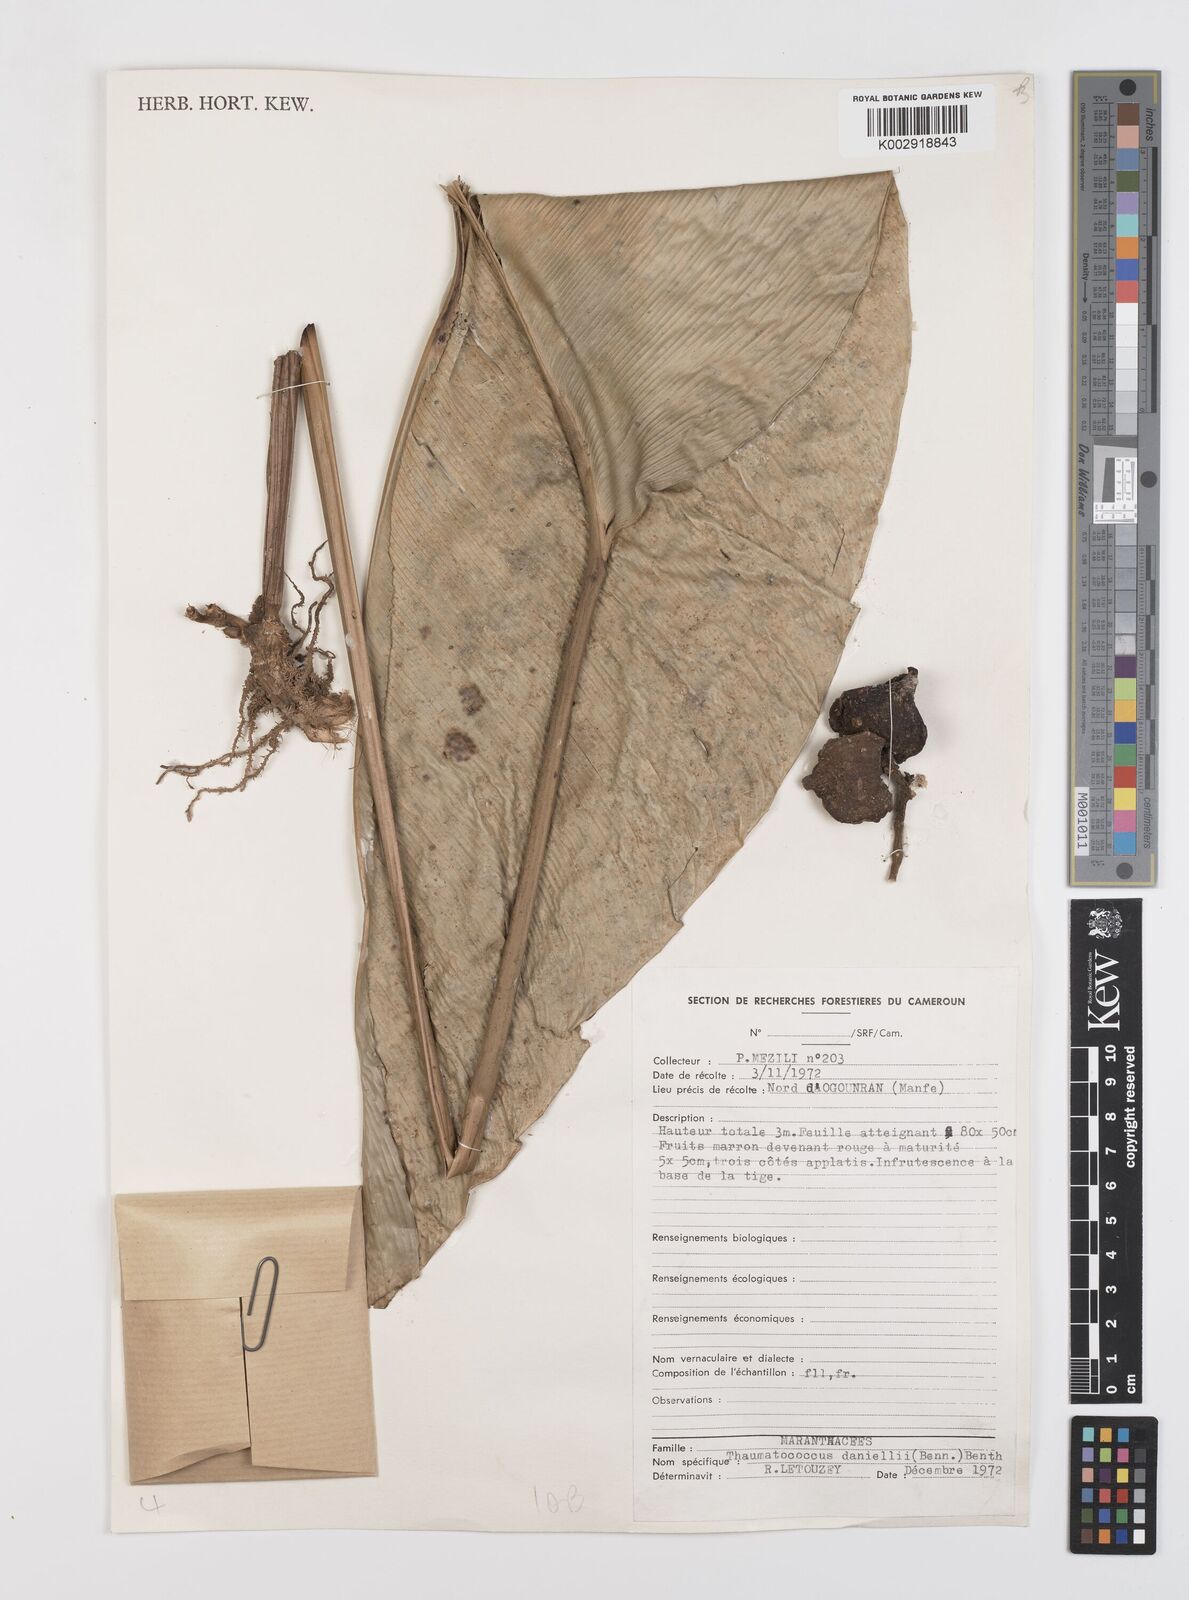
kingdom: Plantae
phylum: Tracheophyta
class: Liliopsida
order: Zingiberales
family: Marantaceae
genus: Thaumatococcus
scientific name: Thaumatococcus daniellii
